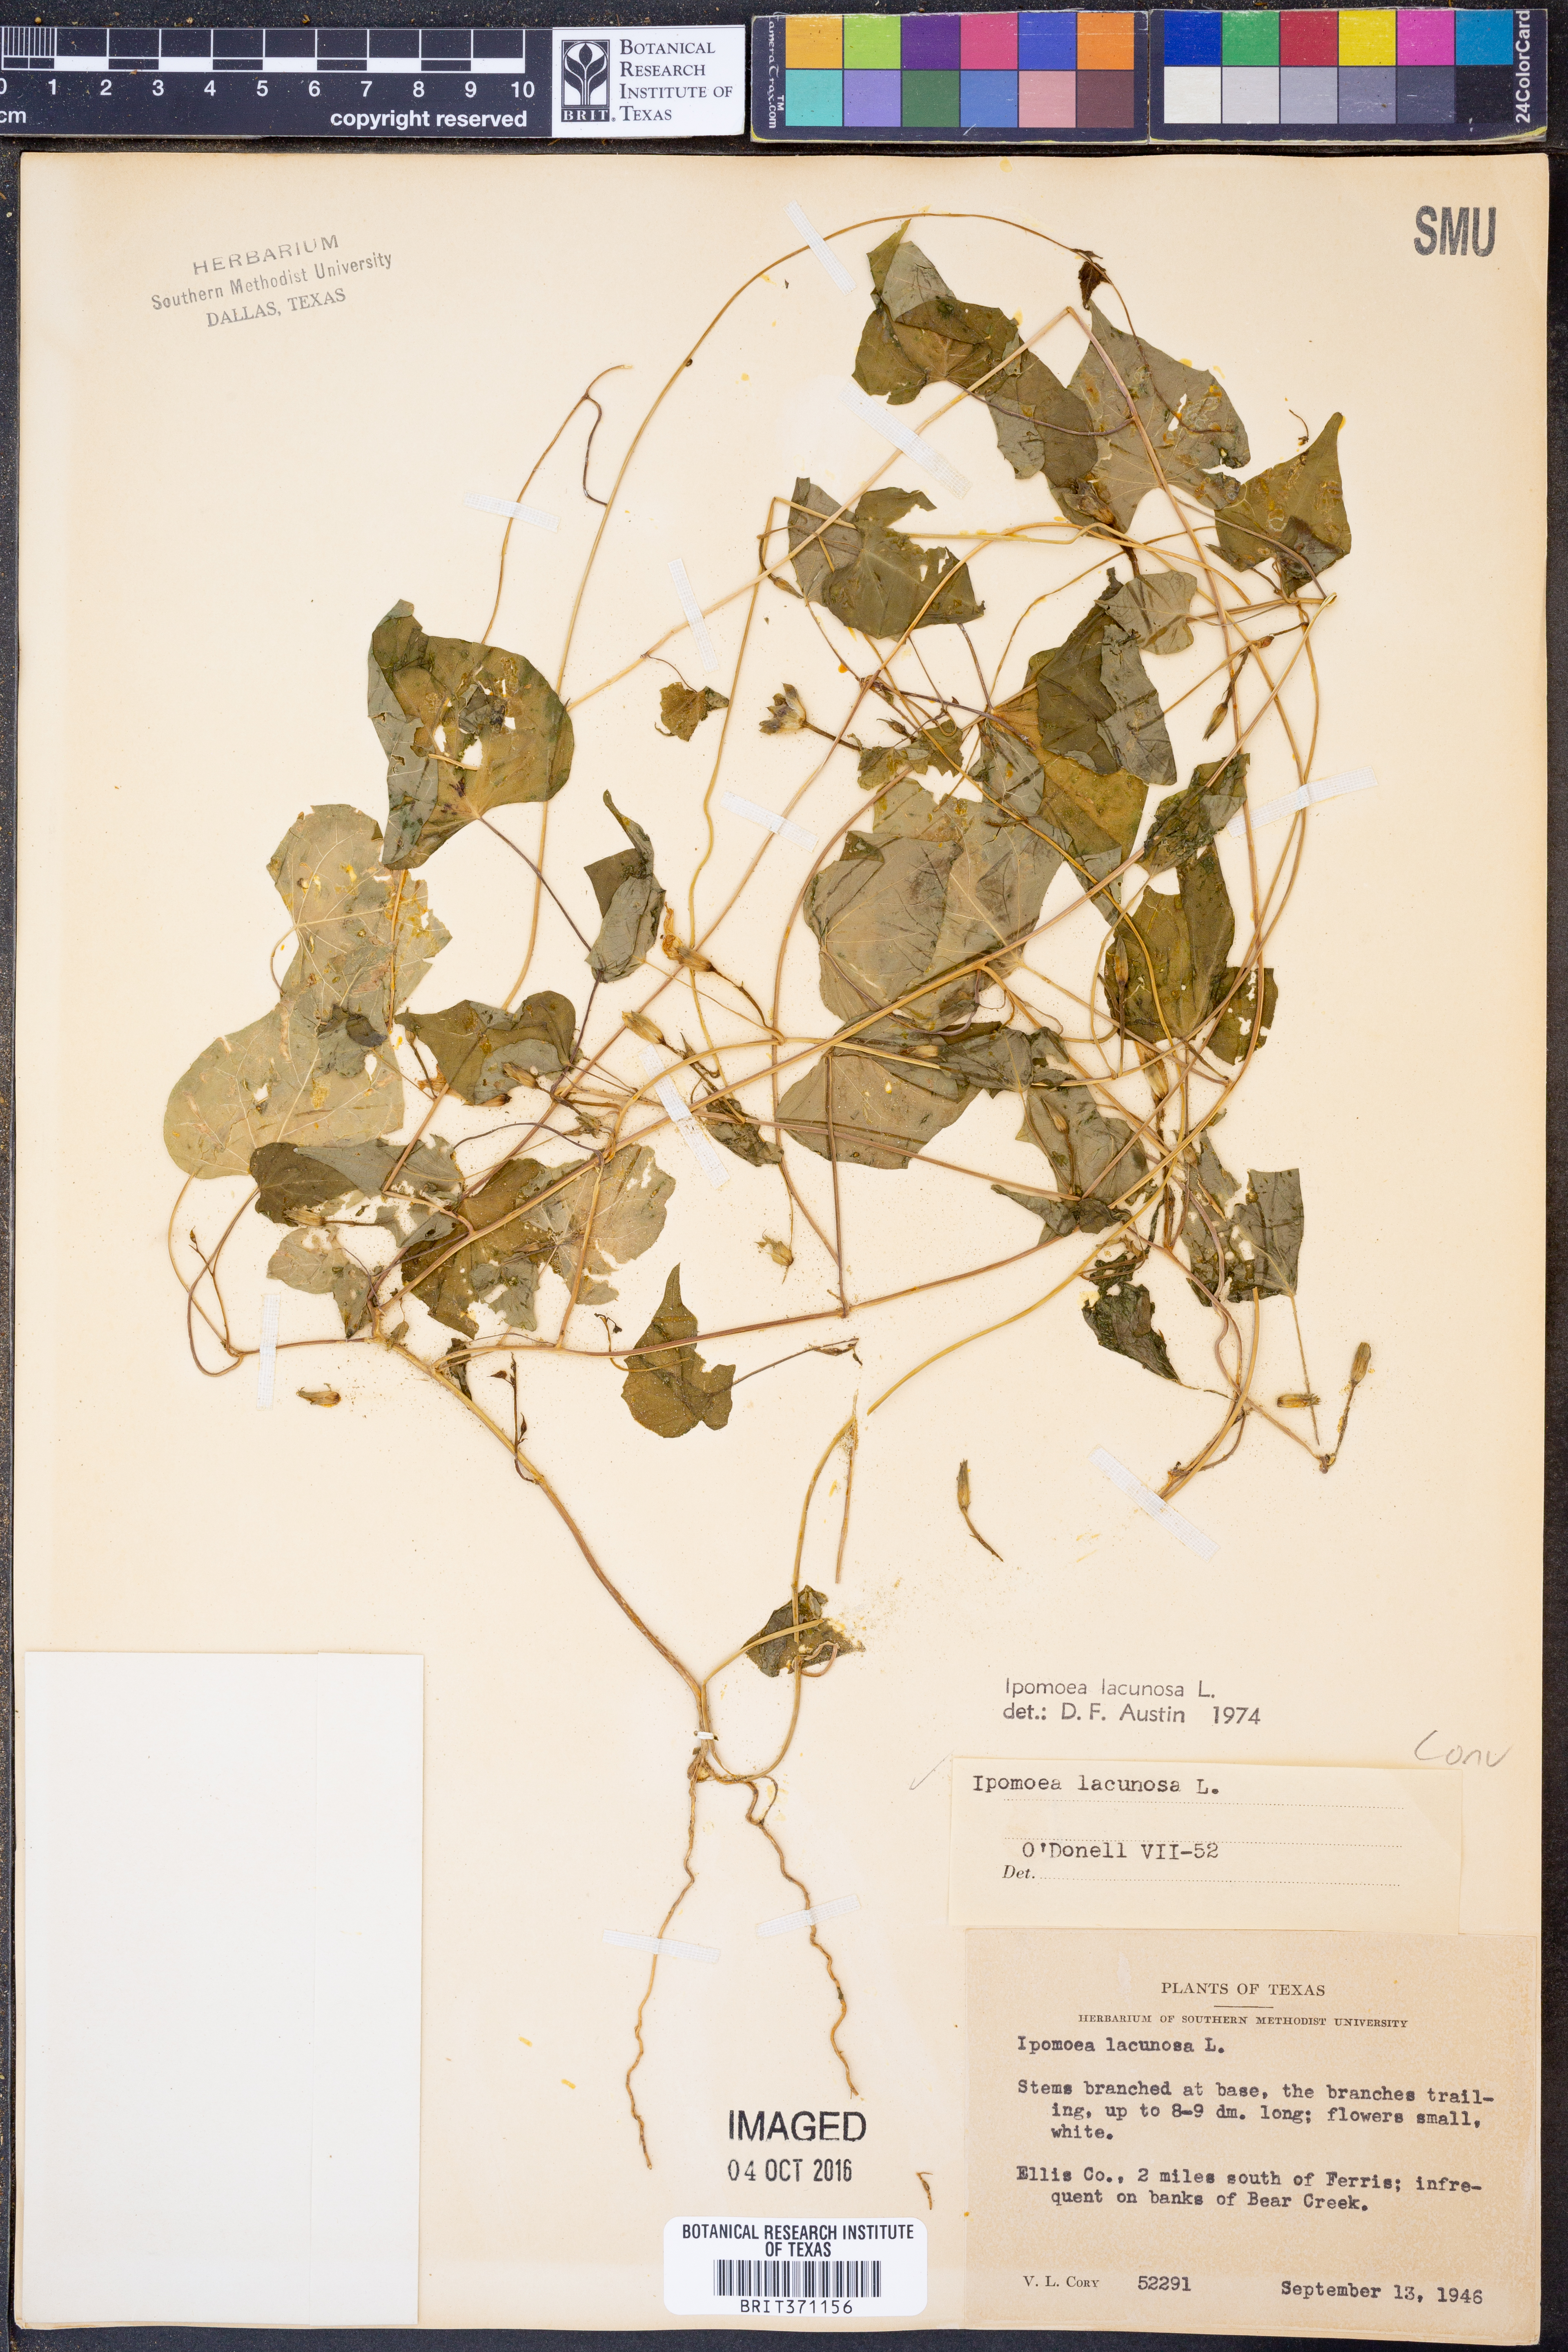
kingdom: Plantae
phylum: Tracheophyta
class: Magnoliopsida
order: Solanales
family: Convolvulaceae
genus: Ipomoea
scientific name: Ipomoea lacunosa
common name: White morning-glory
